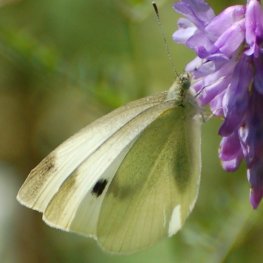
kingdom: Animalia
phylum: Arthropoda
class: Insecta
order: Lepidoptera
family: Pieridae
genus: Pieris
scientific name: Pieris rapae
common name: Cabbage White
